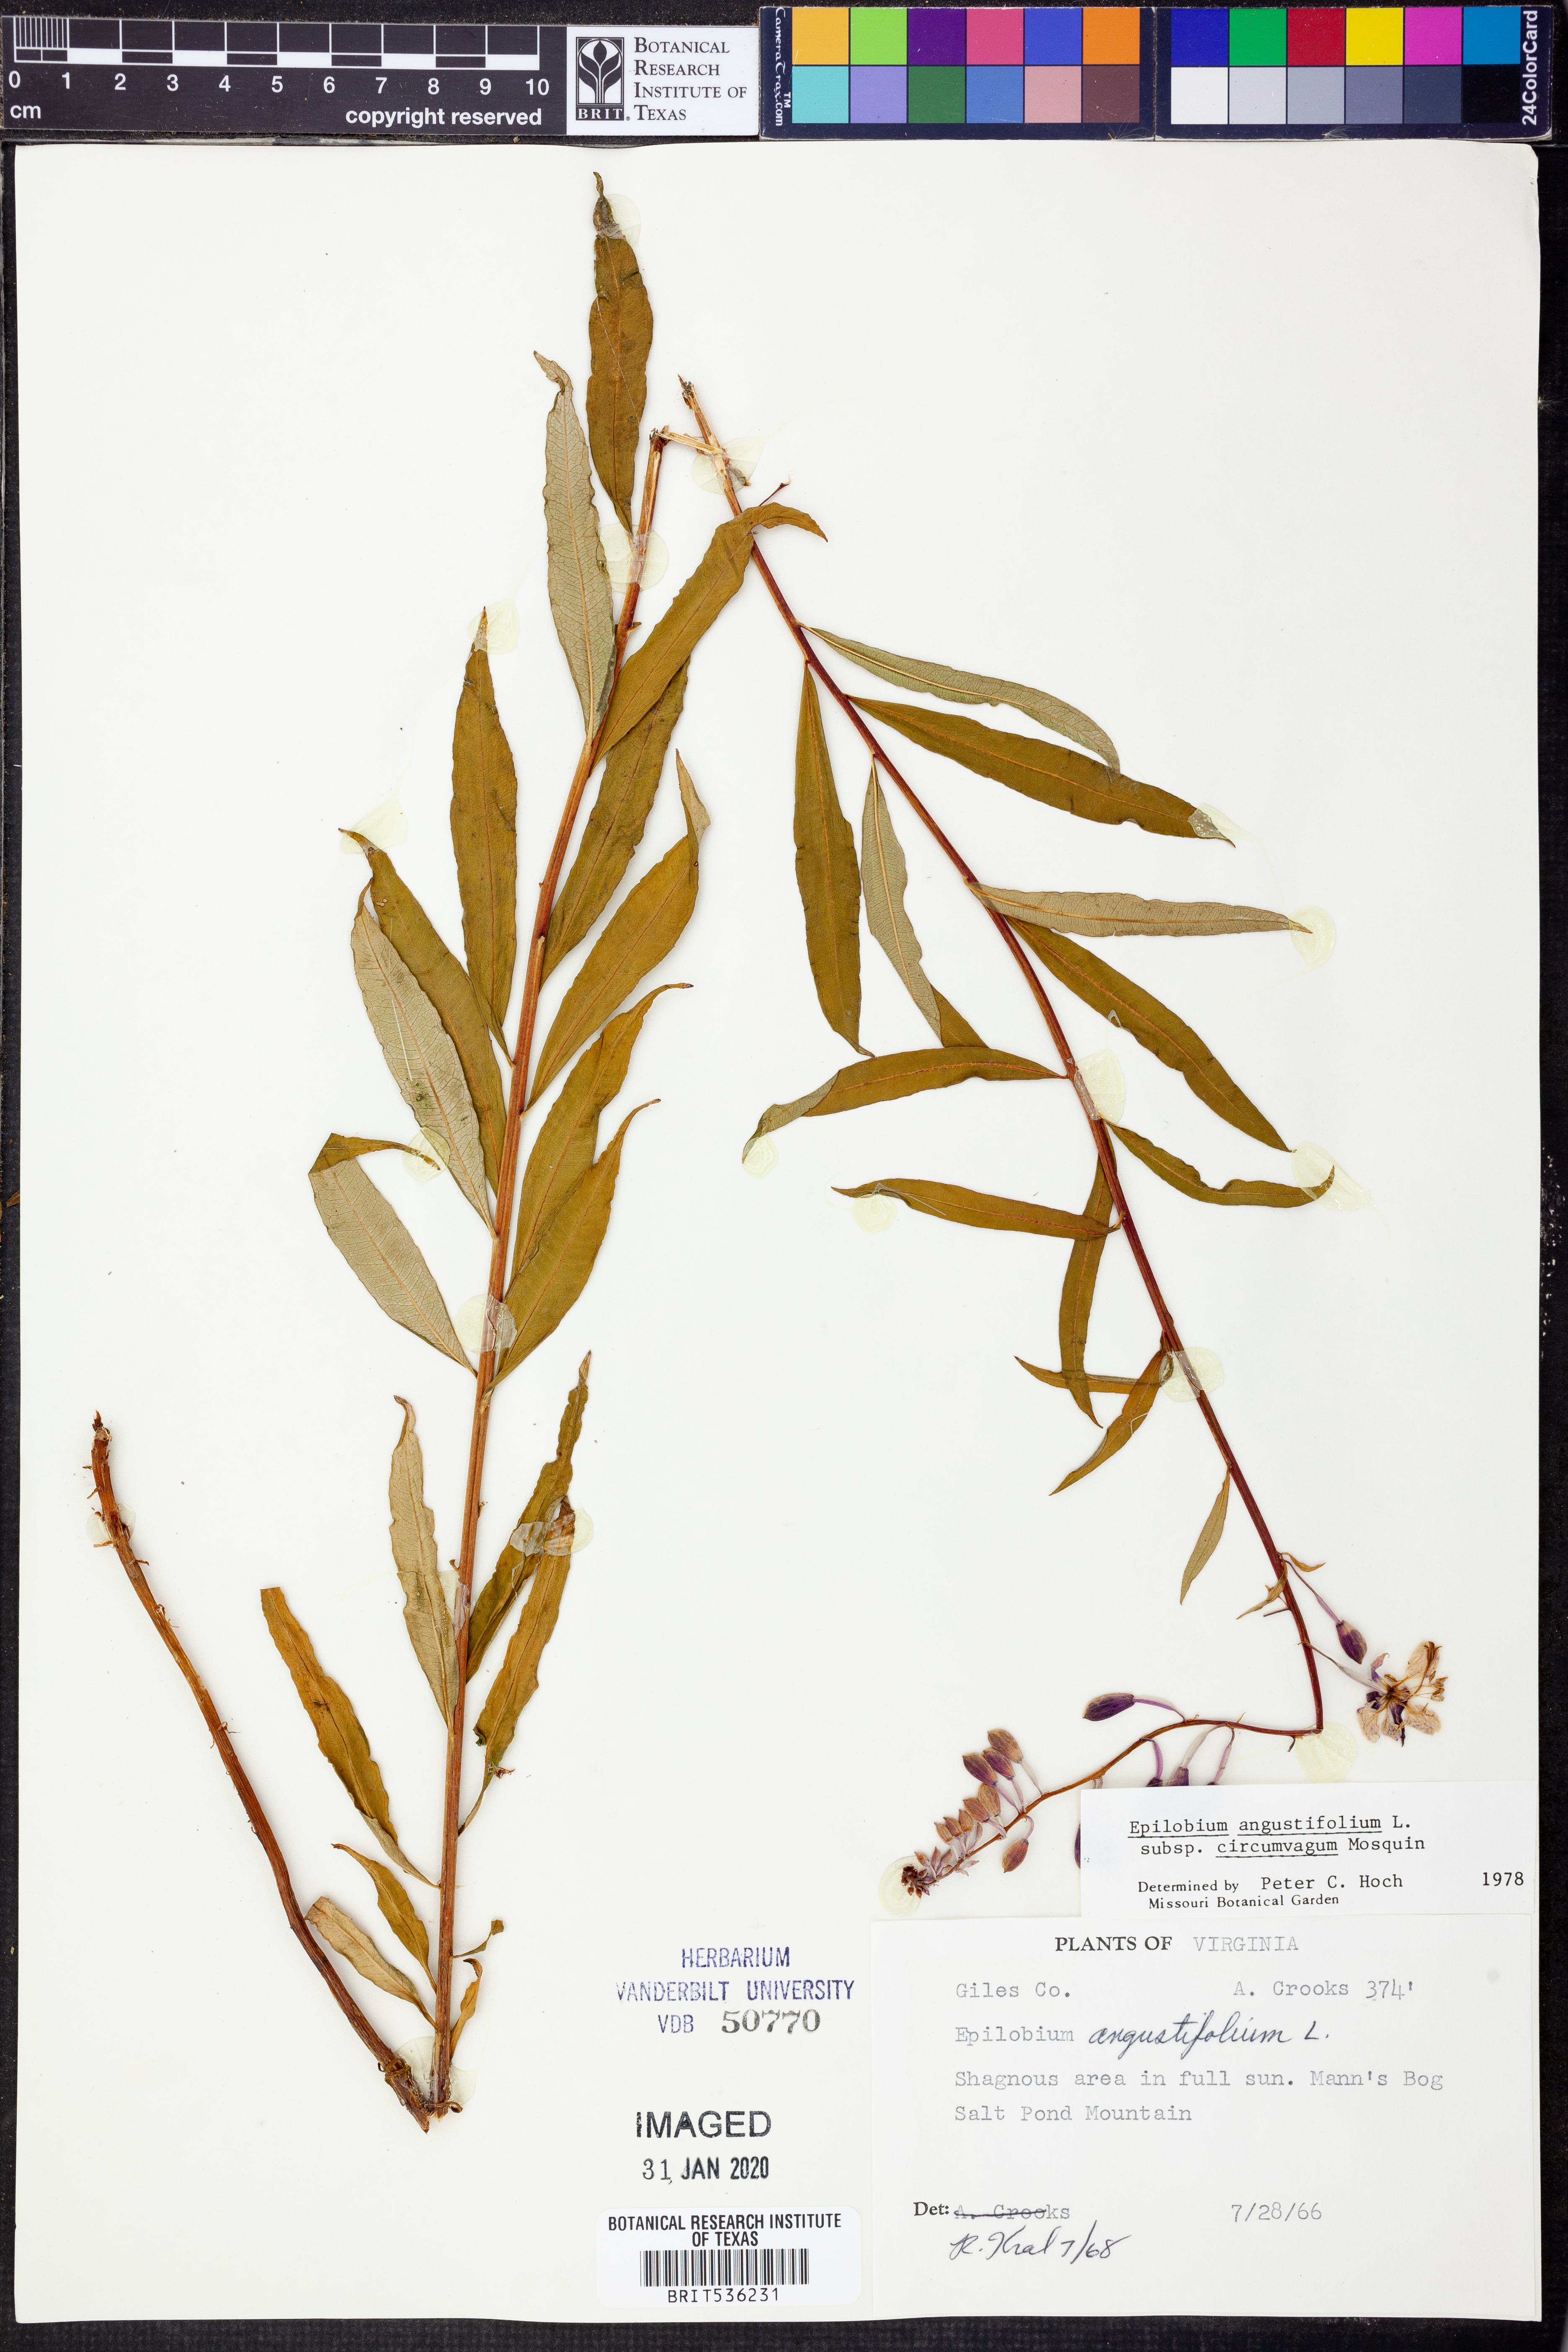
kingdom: Plantae
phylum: Tracheophyta
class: Magnoliopsida
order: Myrtales
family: Onagraceae
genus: Chamaenerion
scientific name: Chamaenerion angustifolium
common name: Fireweed
